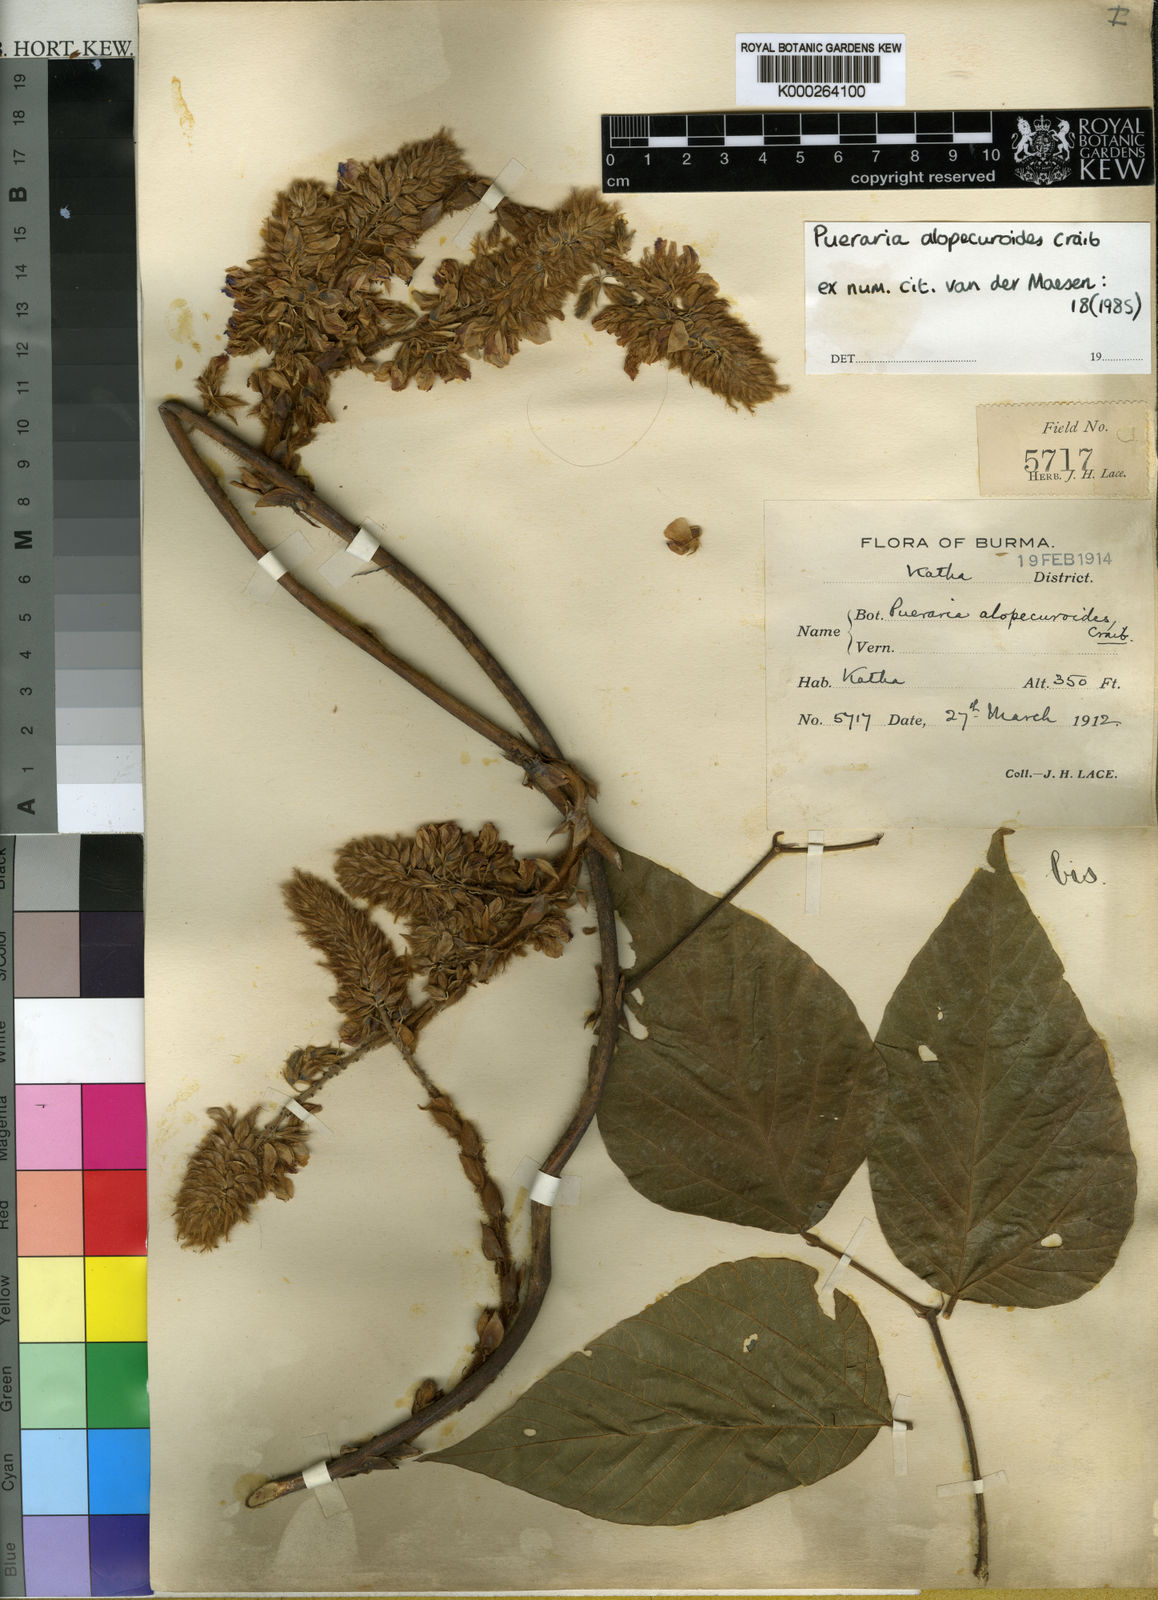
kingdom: Plantae
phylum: Tracheophyta
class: Magnoliopsida
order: Fabales
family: Fabaceae
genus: Pueraria
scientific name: Pueraria alopecuroides
